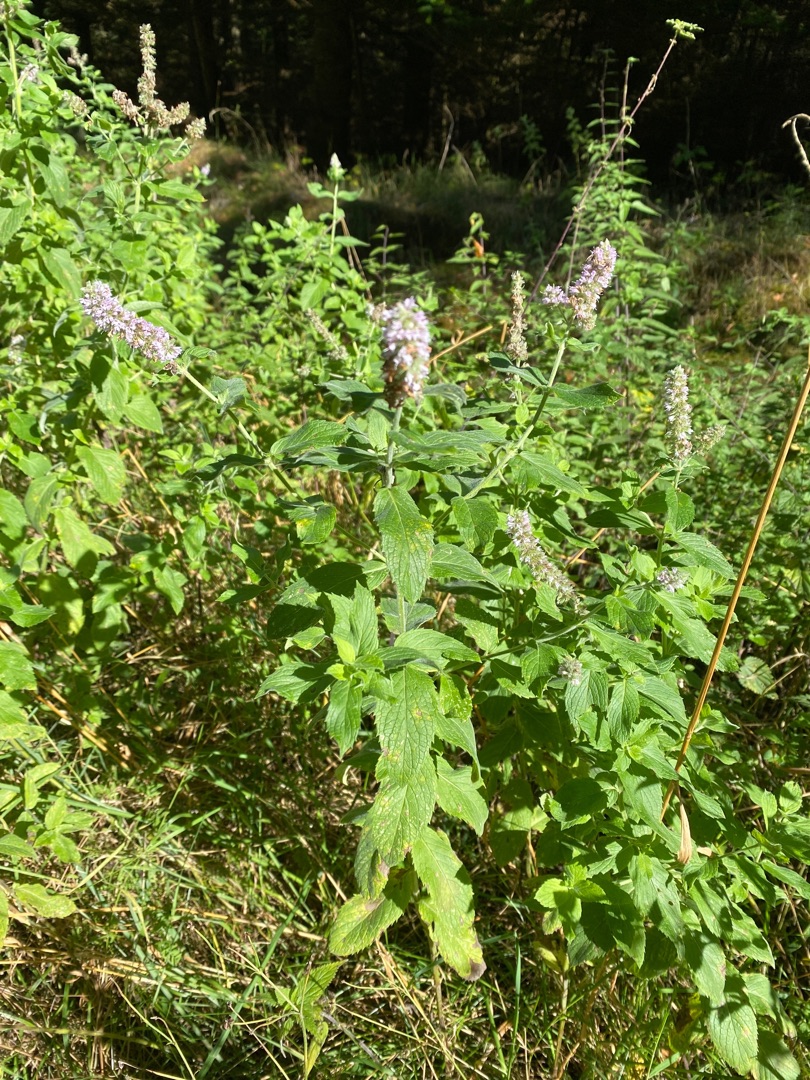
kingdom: Plantae
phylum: Tracheophyta
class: Magnoliopsida
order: Lamiales
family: Lamiaceae
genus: Mentha
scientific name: Mentha spicata
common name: Grøn mynte
